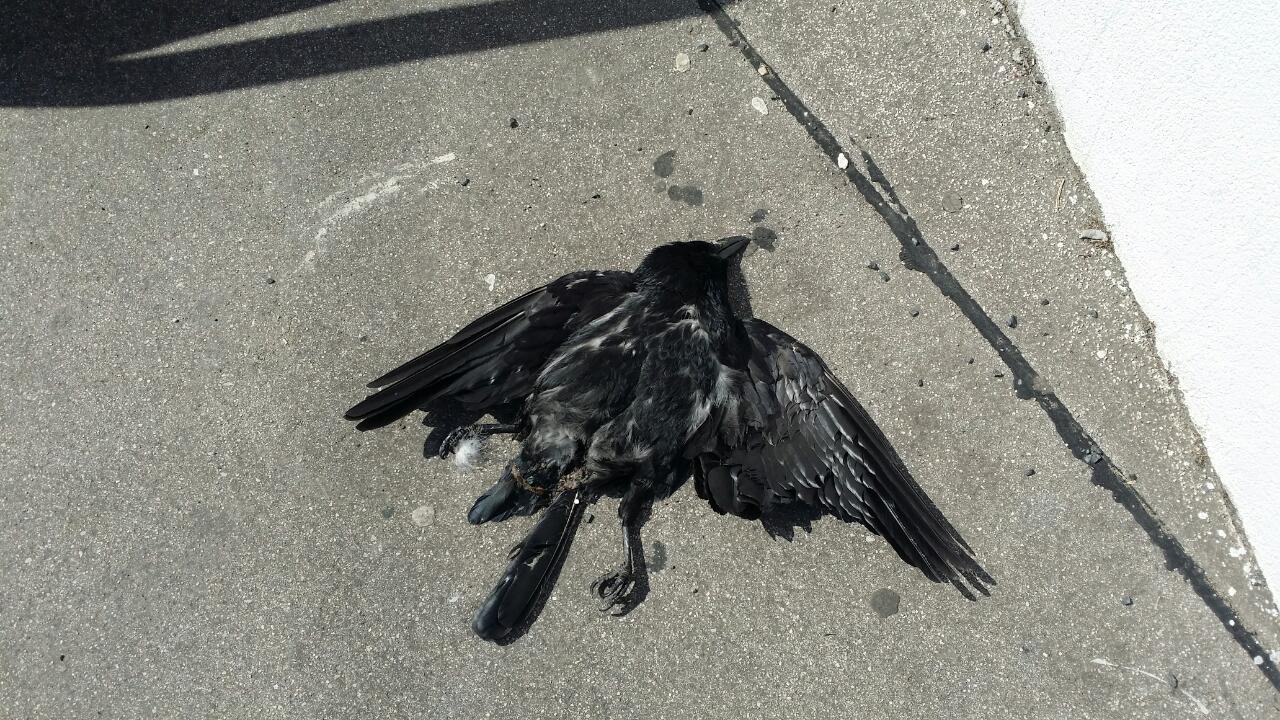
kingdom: Animalia
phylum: Chordata
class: Aves
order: Passeriformes
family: Corvidae
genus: Corvus
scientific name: Corvus corone
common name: Carrion crow
